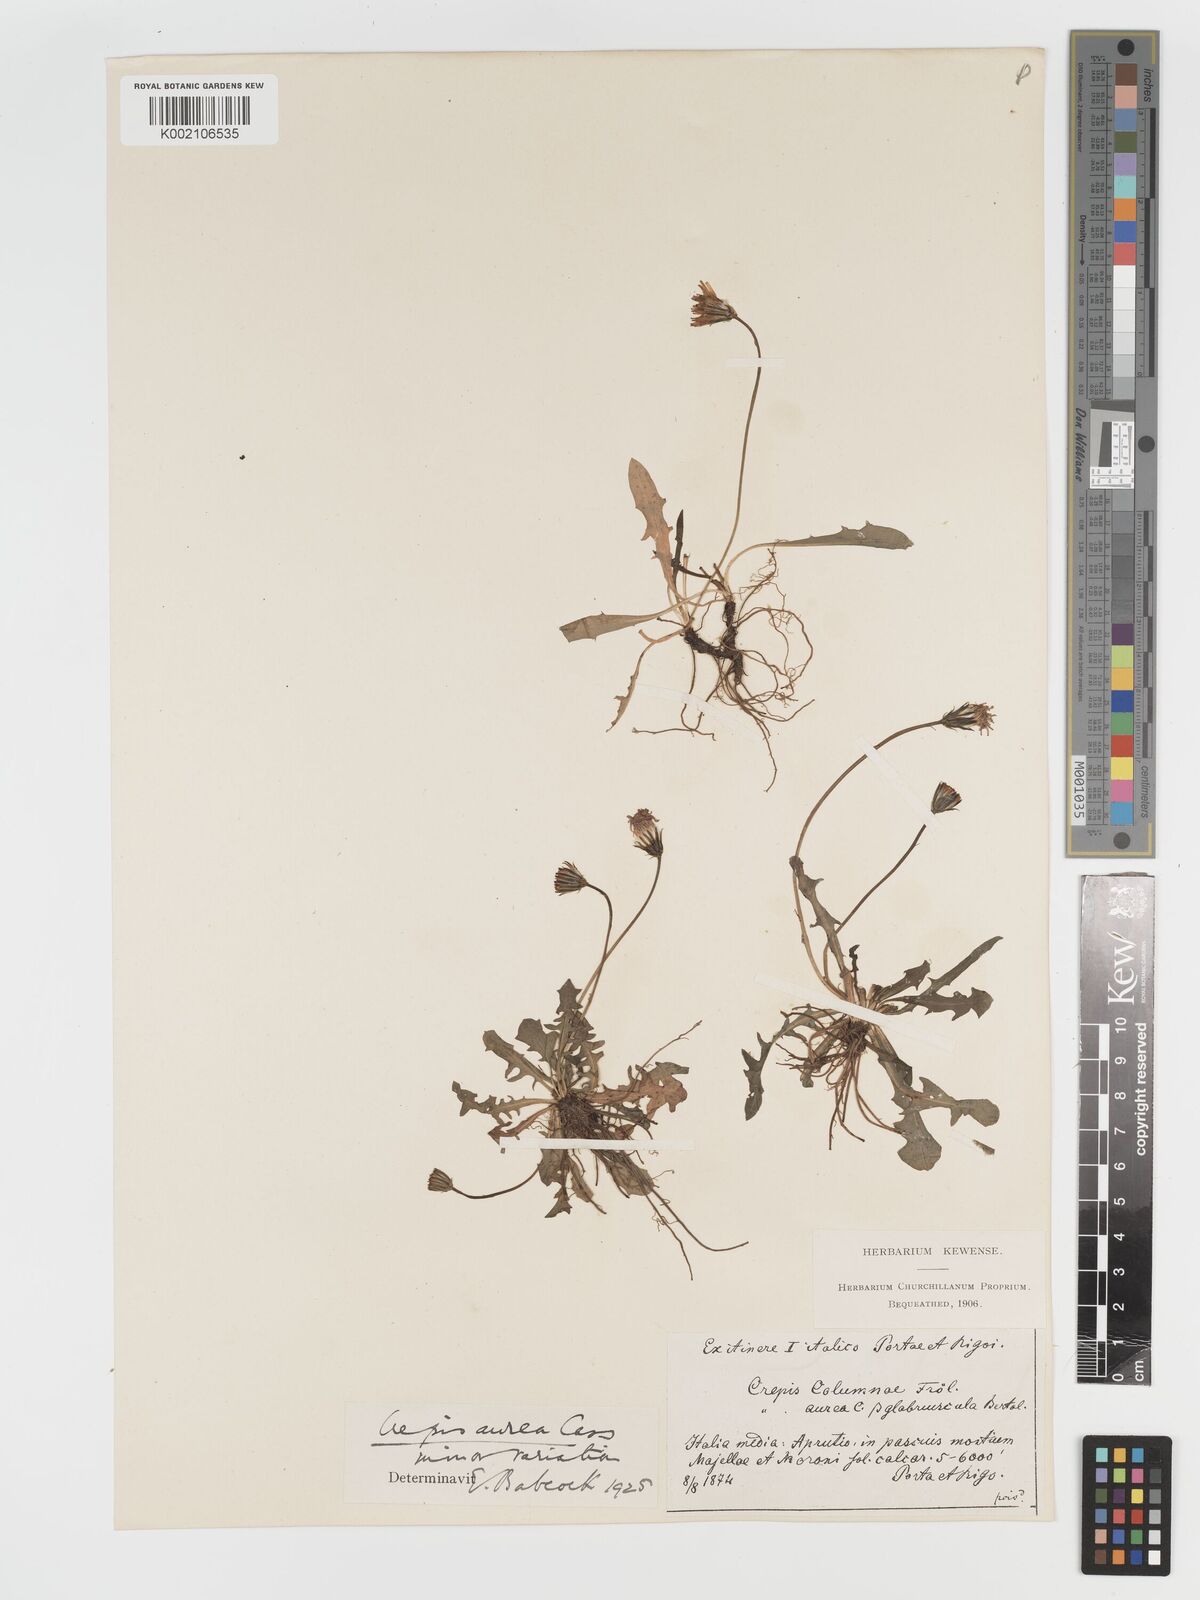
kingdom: Plantae
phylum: Tracheophyta
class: Magnoliopsida
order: Asterales
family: Asteraceae
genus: Crepis
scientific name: Crepis aurea
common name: Golden hawk's-beard
